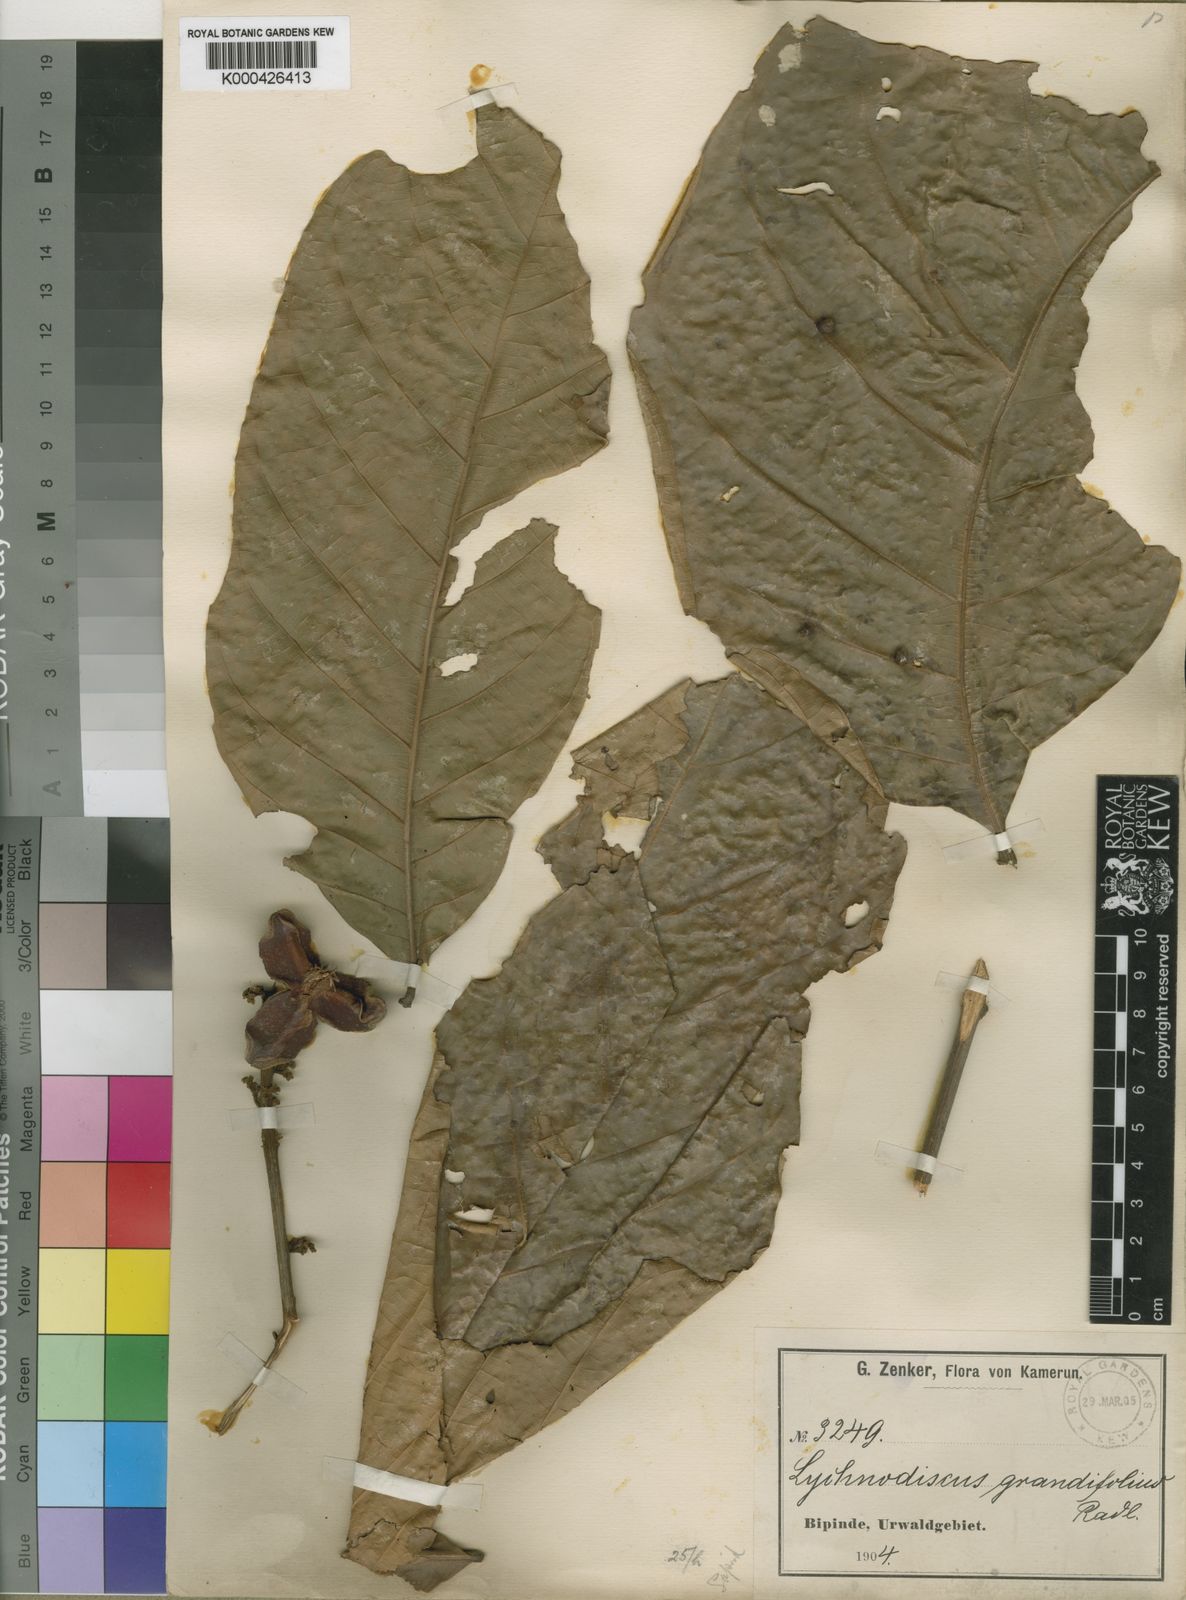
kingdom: Plantae
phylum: Tracheophyta
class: Magnoliopsida
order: Sapindales
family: Sapindaceae
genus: Lychnodiscus
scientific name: Lychnodiscus grandifolius
